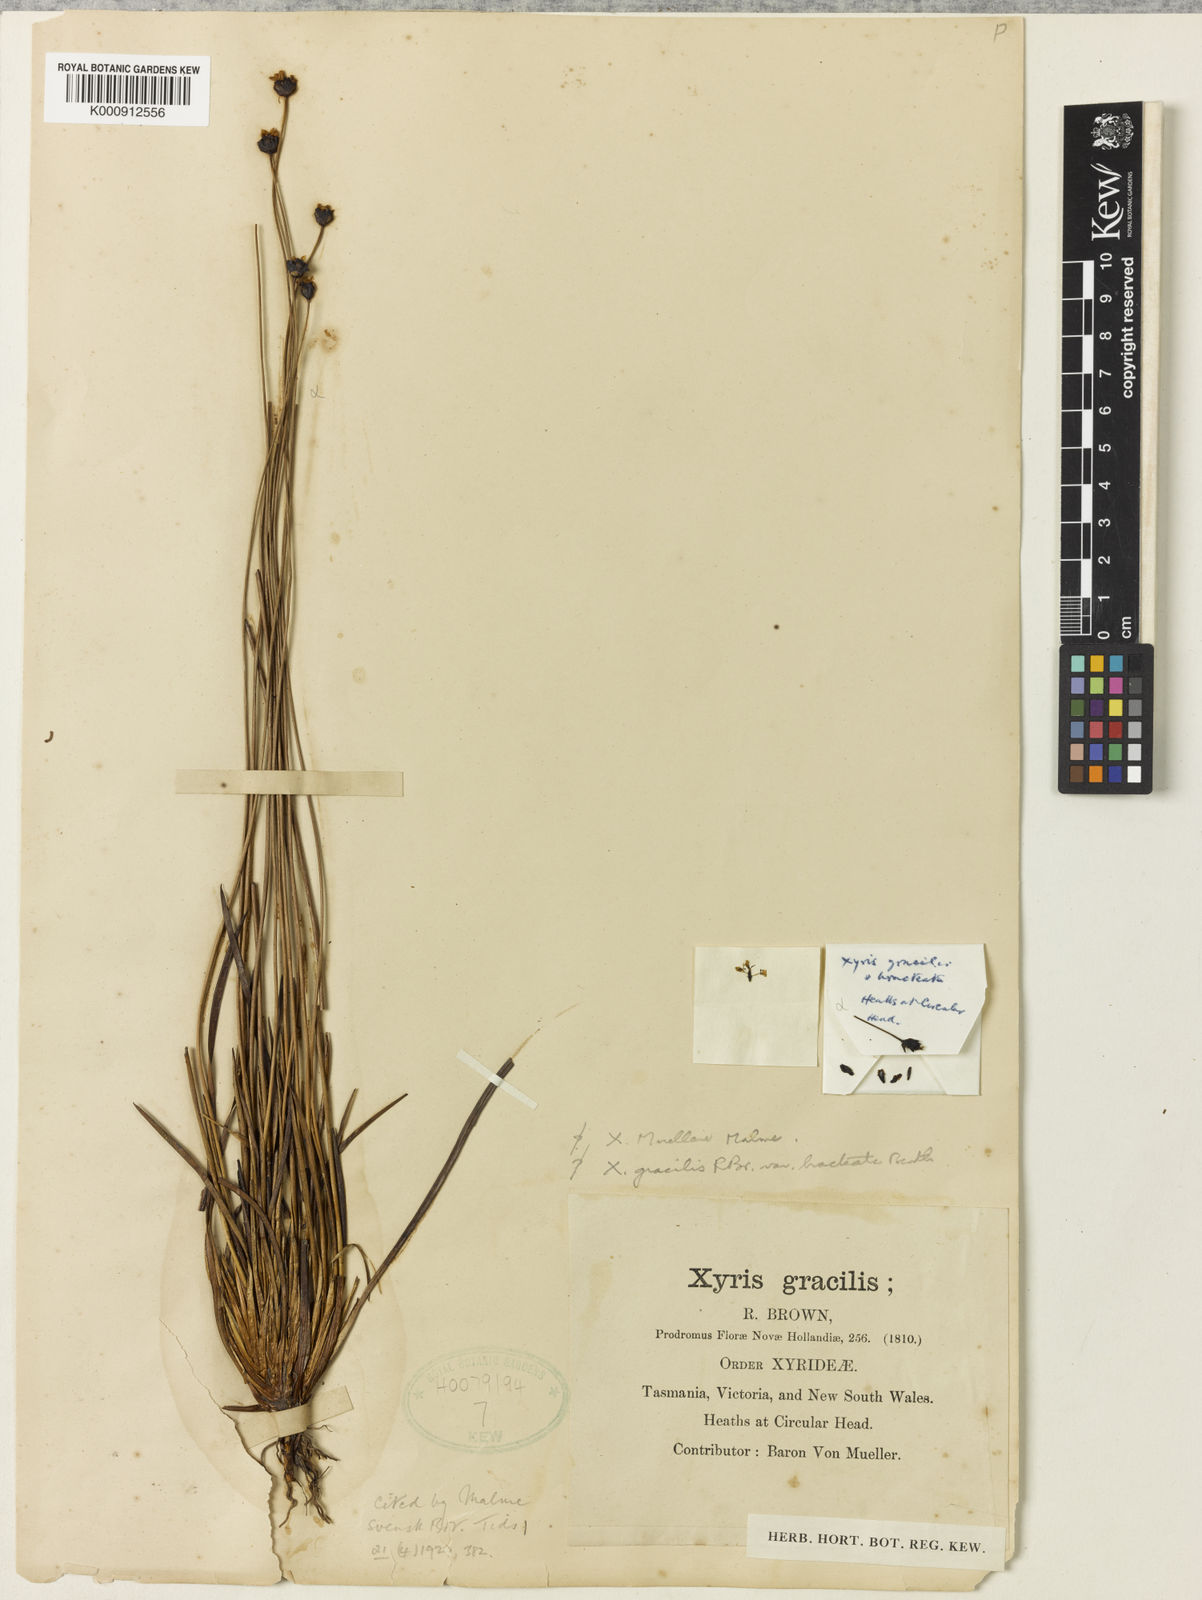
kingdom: Plantae
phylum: Tracheophyta
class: Liliopsida
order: Poales
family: Xyridaceae
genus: Xyris
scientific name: Xyris muelleri
